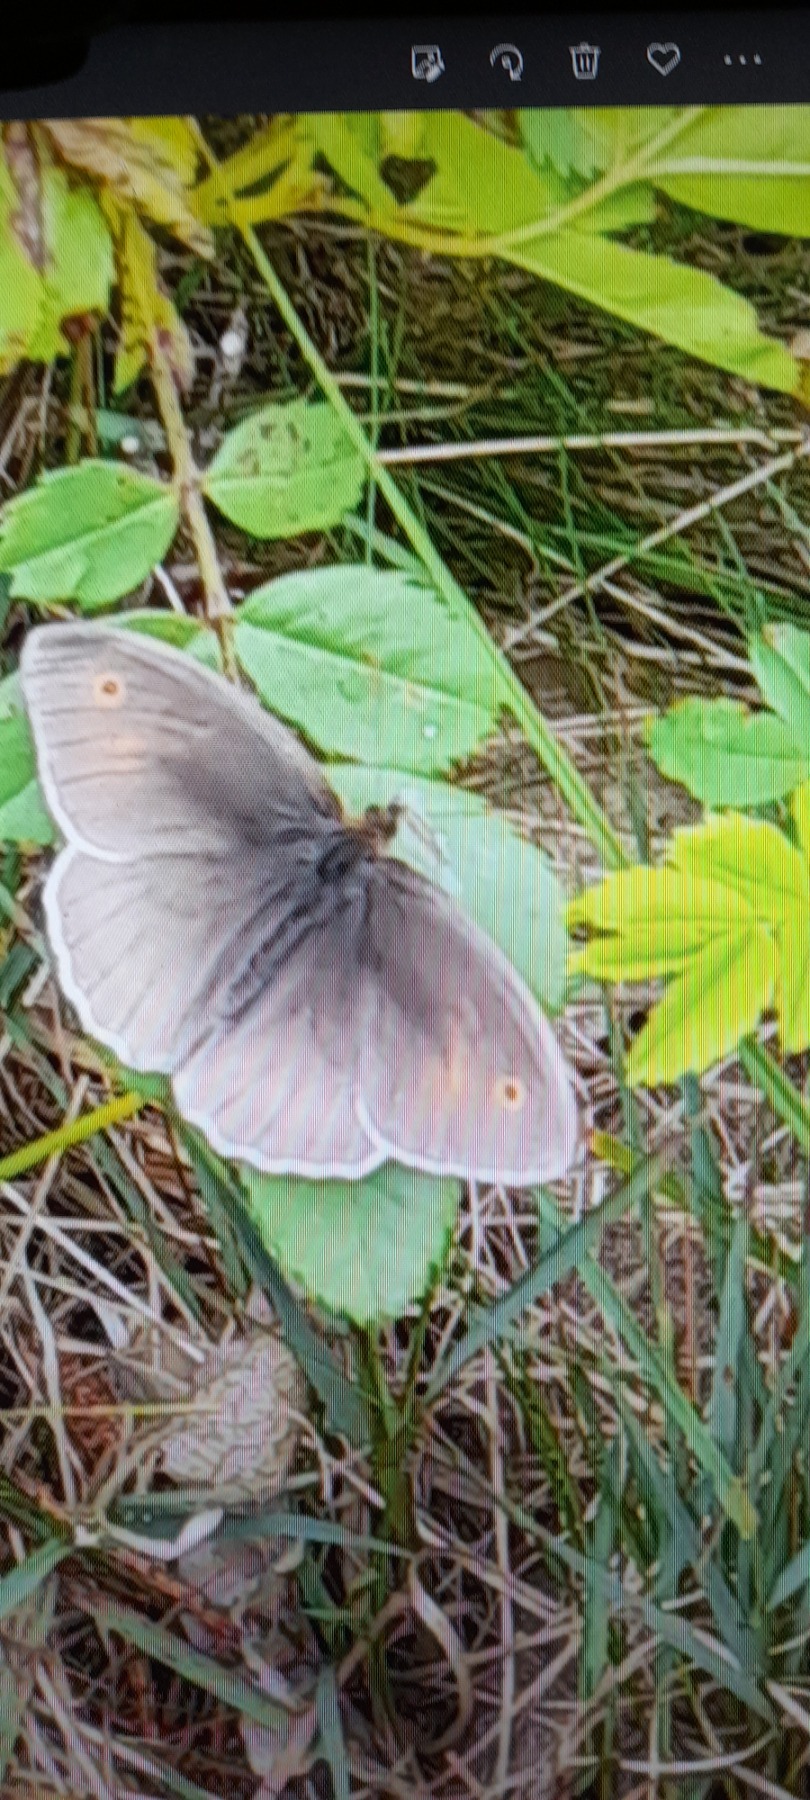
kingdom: Animalia
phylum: Arthropoda
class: Insecta
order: Lepidoptera
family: Nymphalidae
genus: Maniola
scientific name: Maniola jurtina
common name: Græsrandøje
